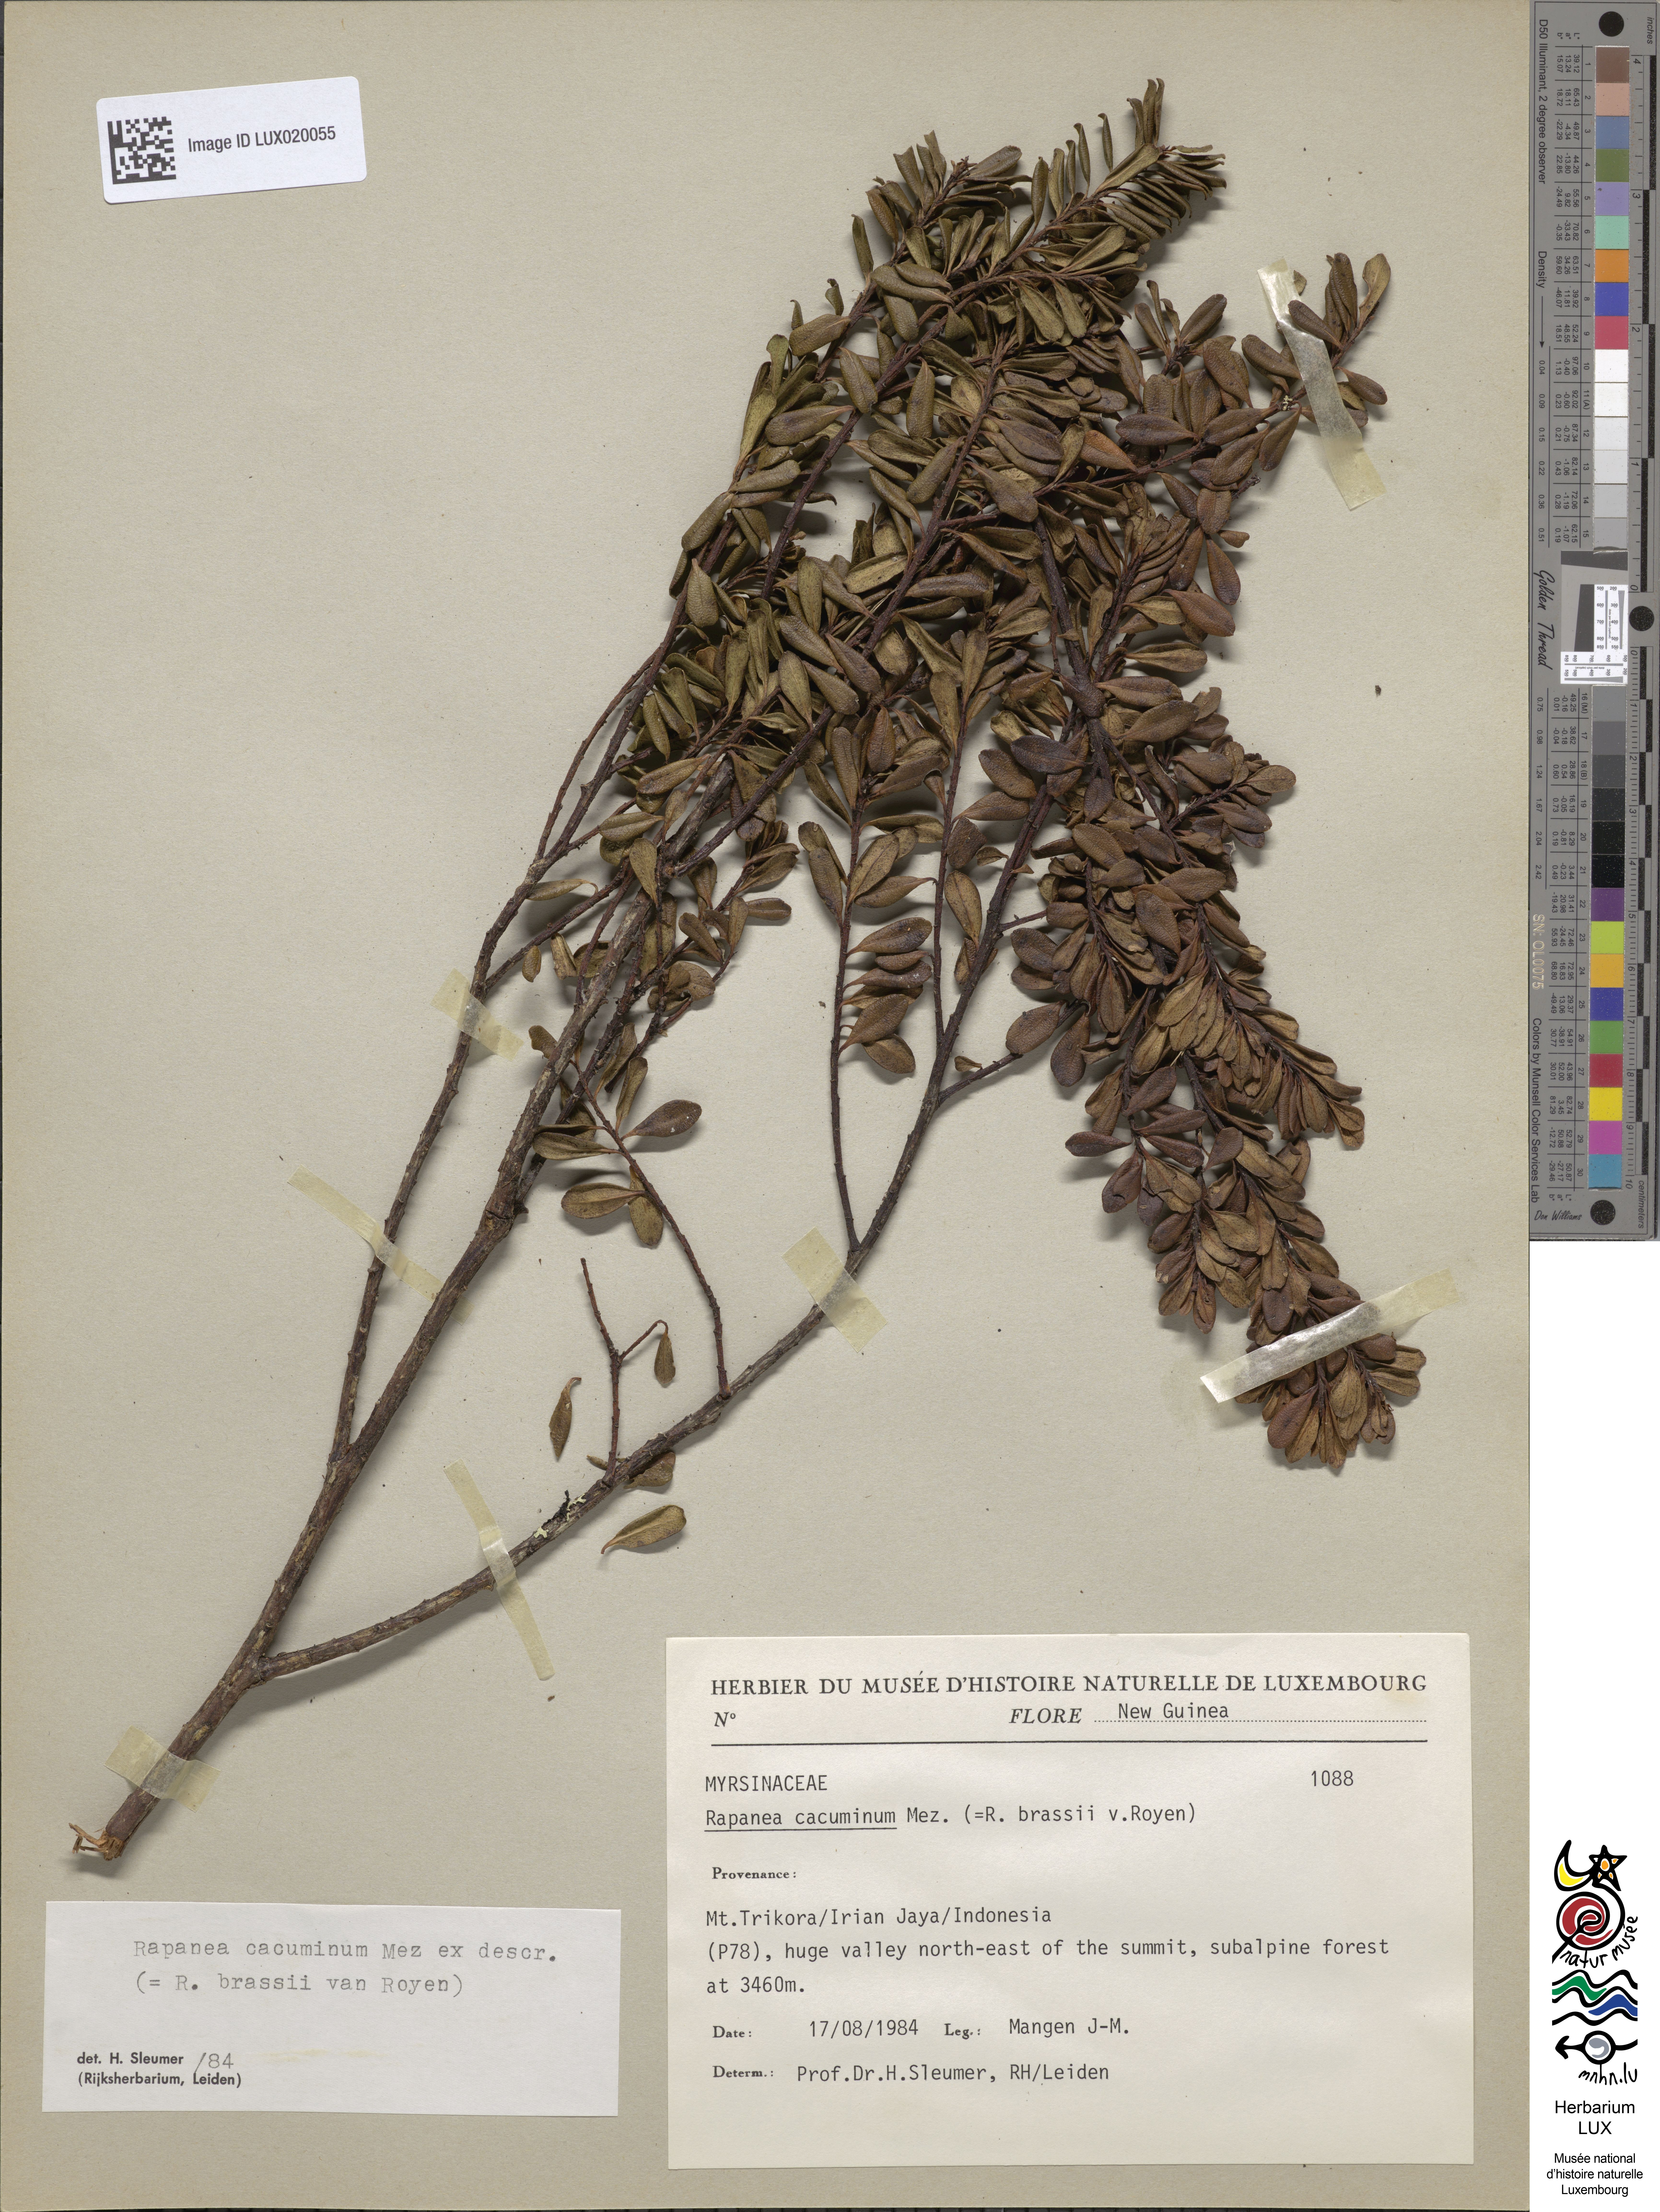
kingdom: Plantae
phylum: Tracheophyta
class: Magnoliopsida
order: Ericales
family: Primulaceae
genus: Myrsine
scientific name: Myrsine cacuminum
